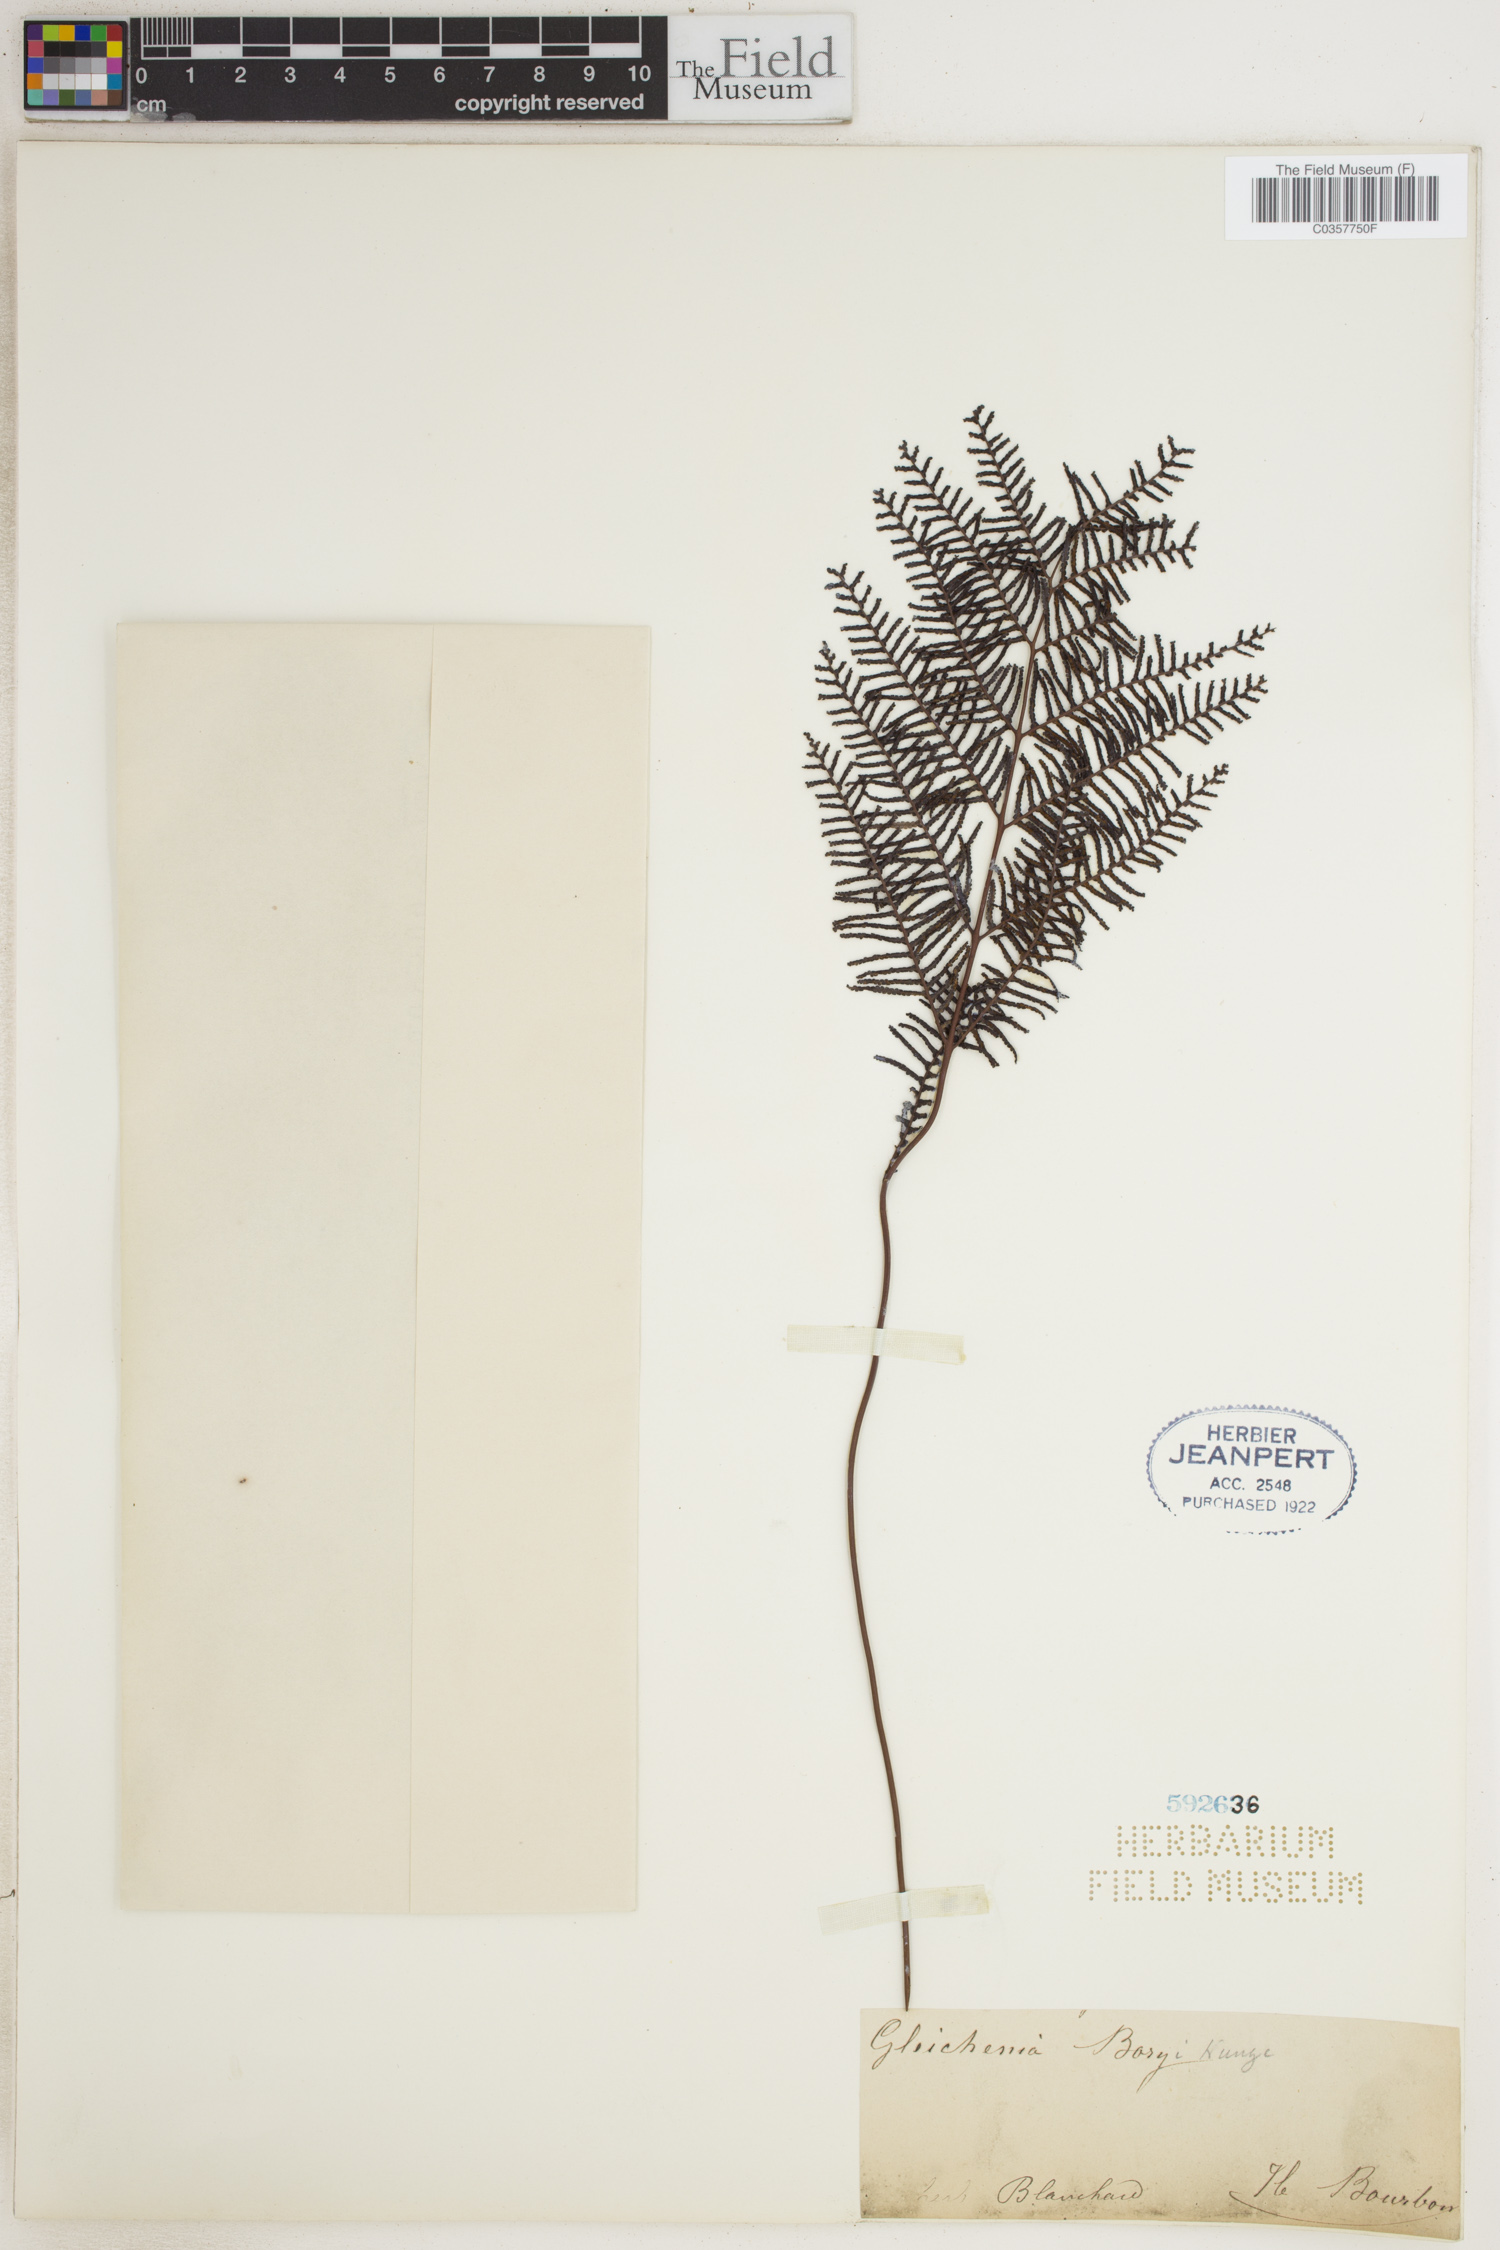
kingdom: Plantae
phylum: Tracheophyta
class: Polypodiopsida
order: Gleicheniales
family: Gleicheniaceae
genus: Rouxopteris
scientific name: Rouxopteris boryi
